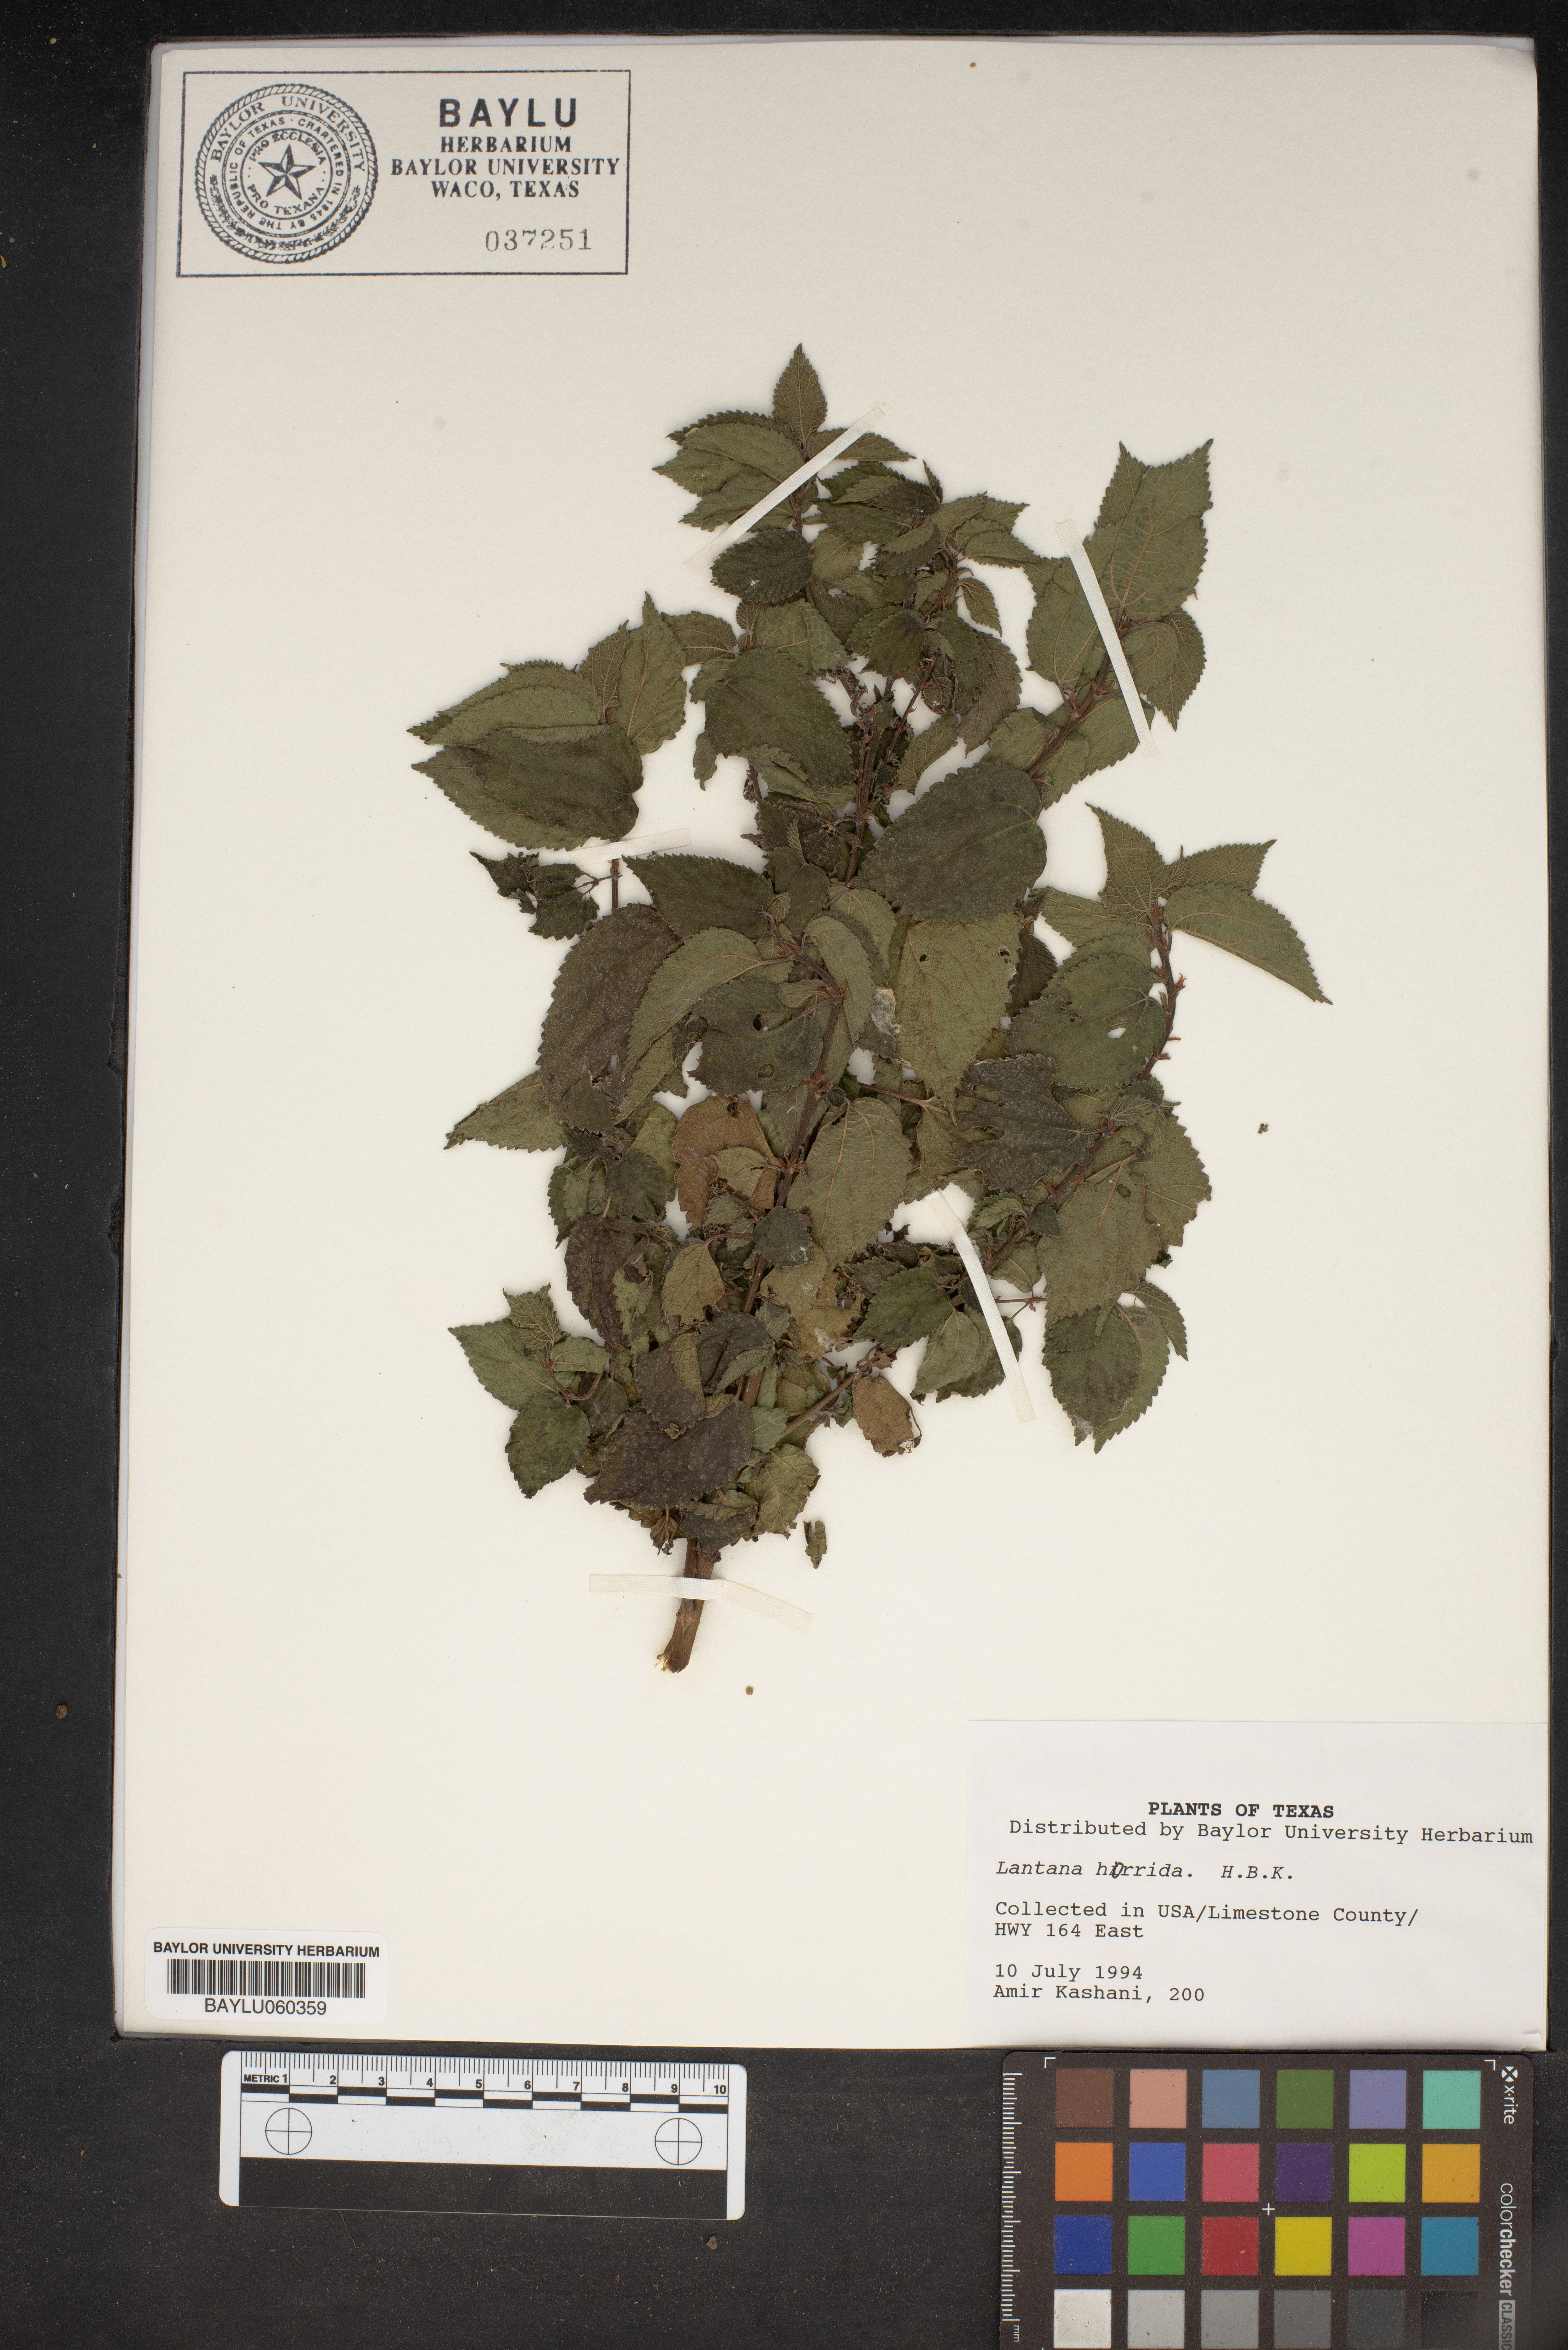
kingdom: Plantae
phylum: Tracheophyta
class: Magnoliopsida
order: Lamiales
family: Verbenaceae
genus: Lantana
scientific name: Lantana horrida
